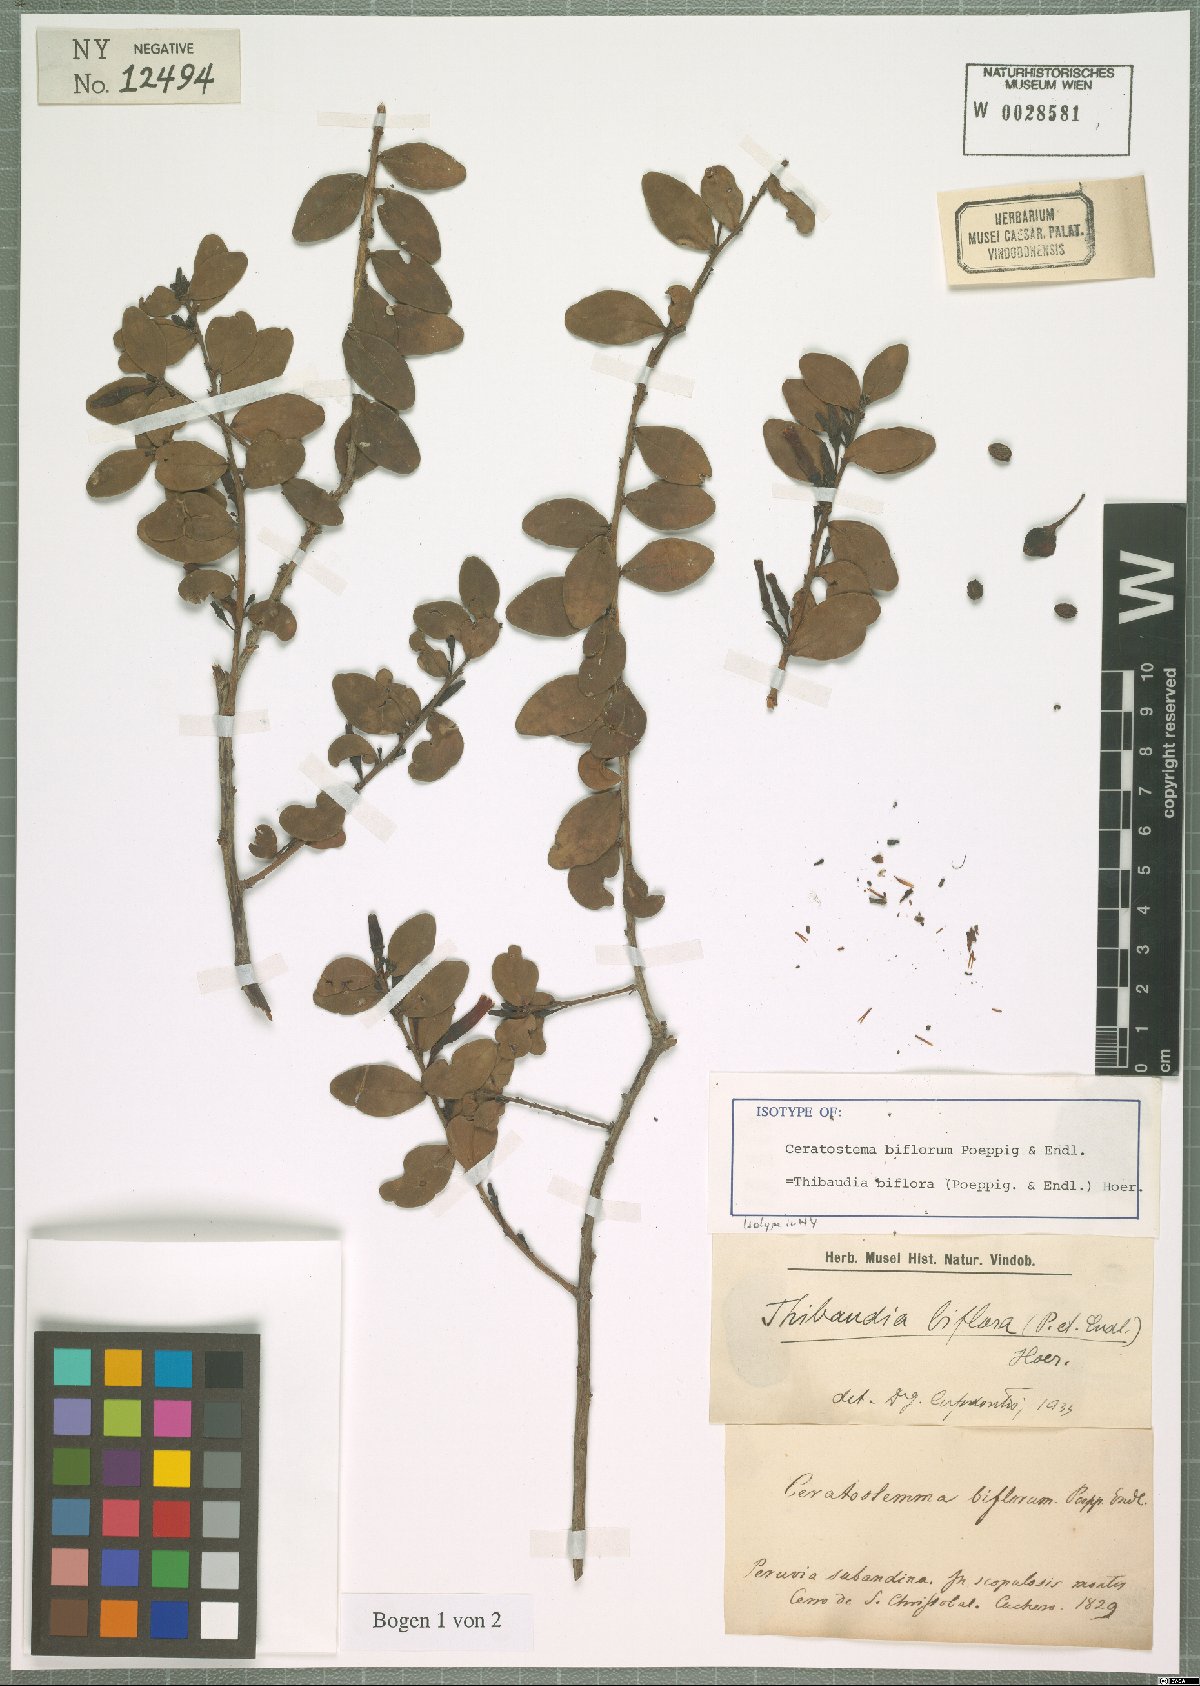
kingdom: Plantae
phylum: Tracheophyta
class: Magnoliopsida
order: Ericales
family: Ericaceae
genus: Thibaudia
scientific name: Thibaudia biflora
